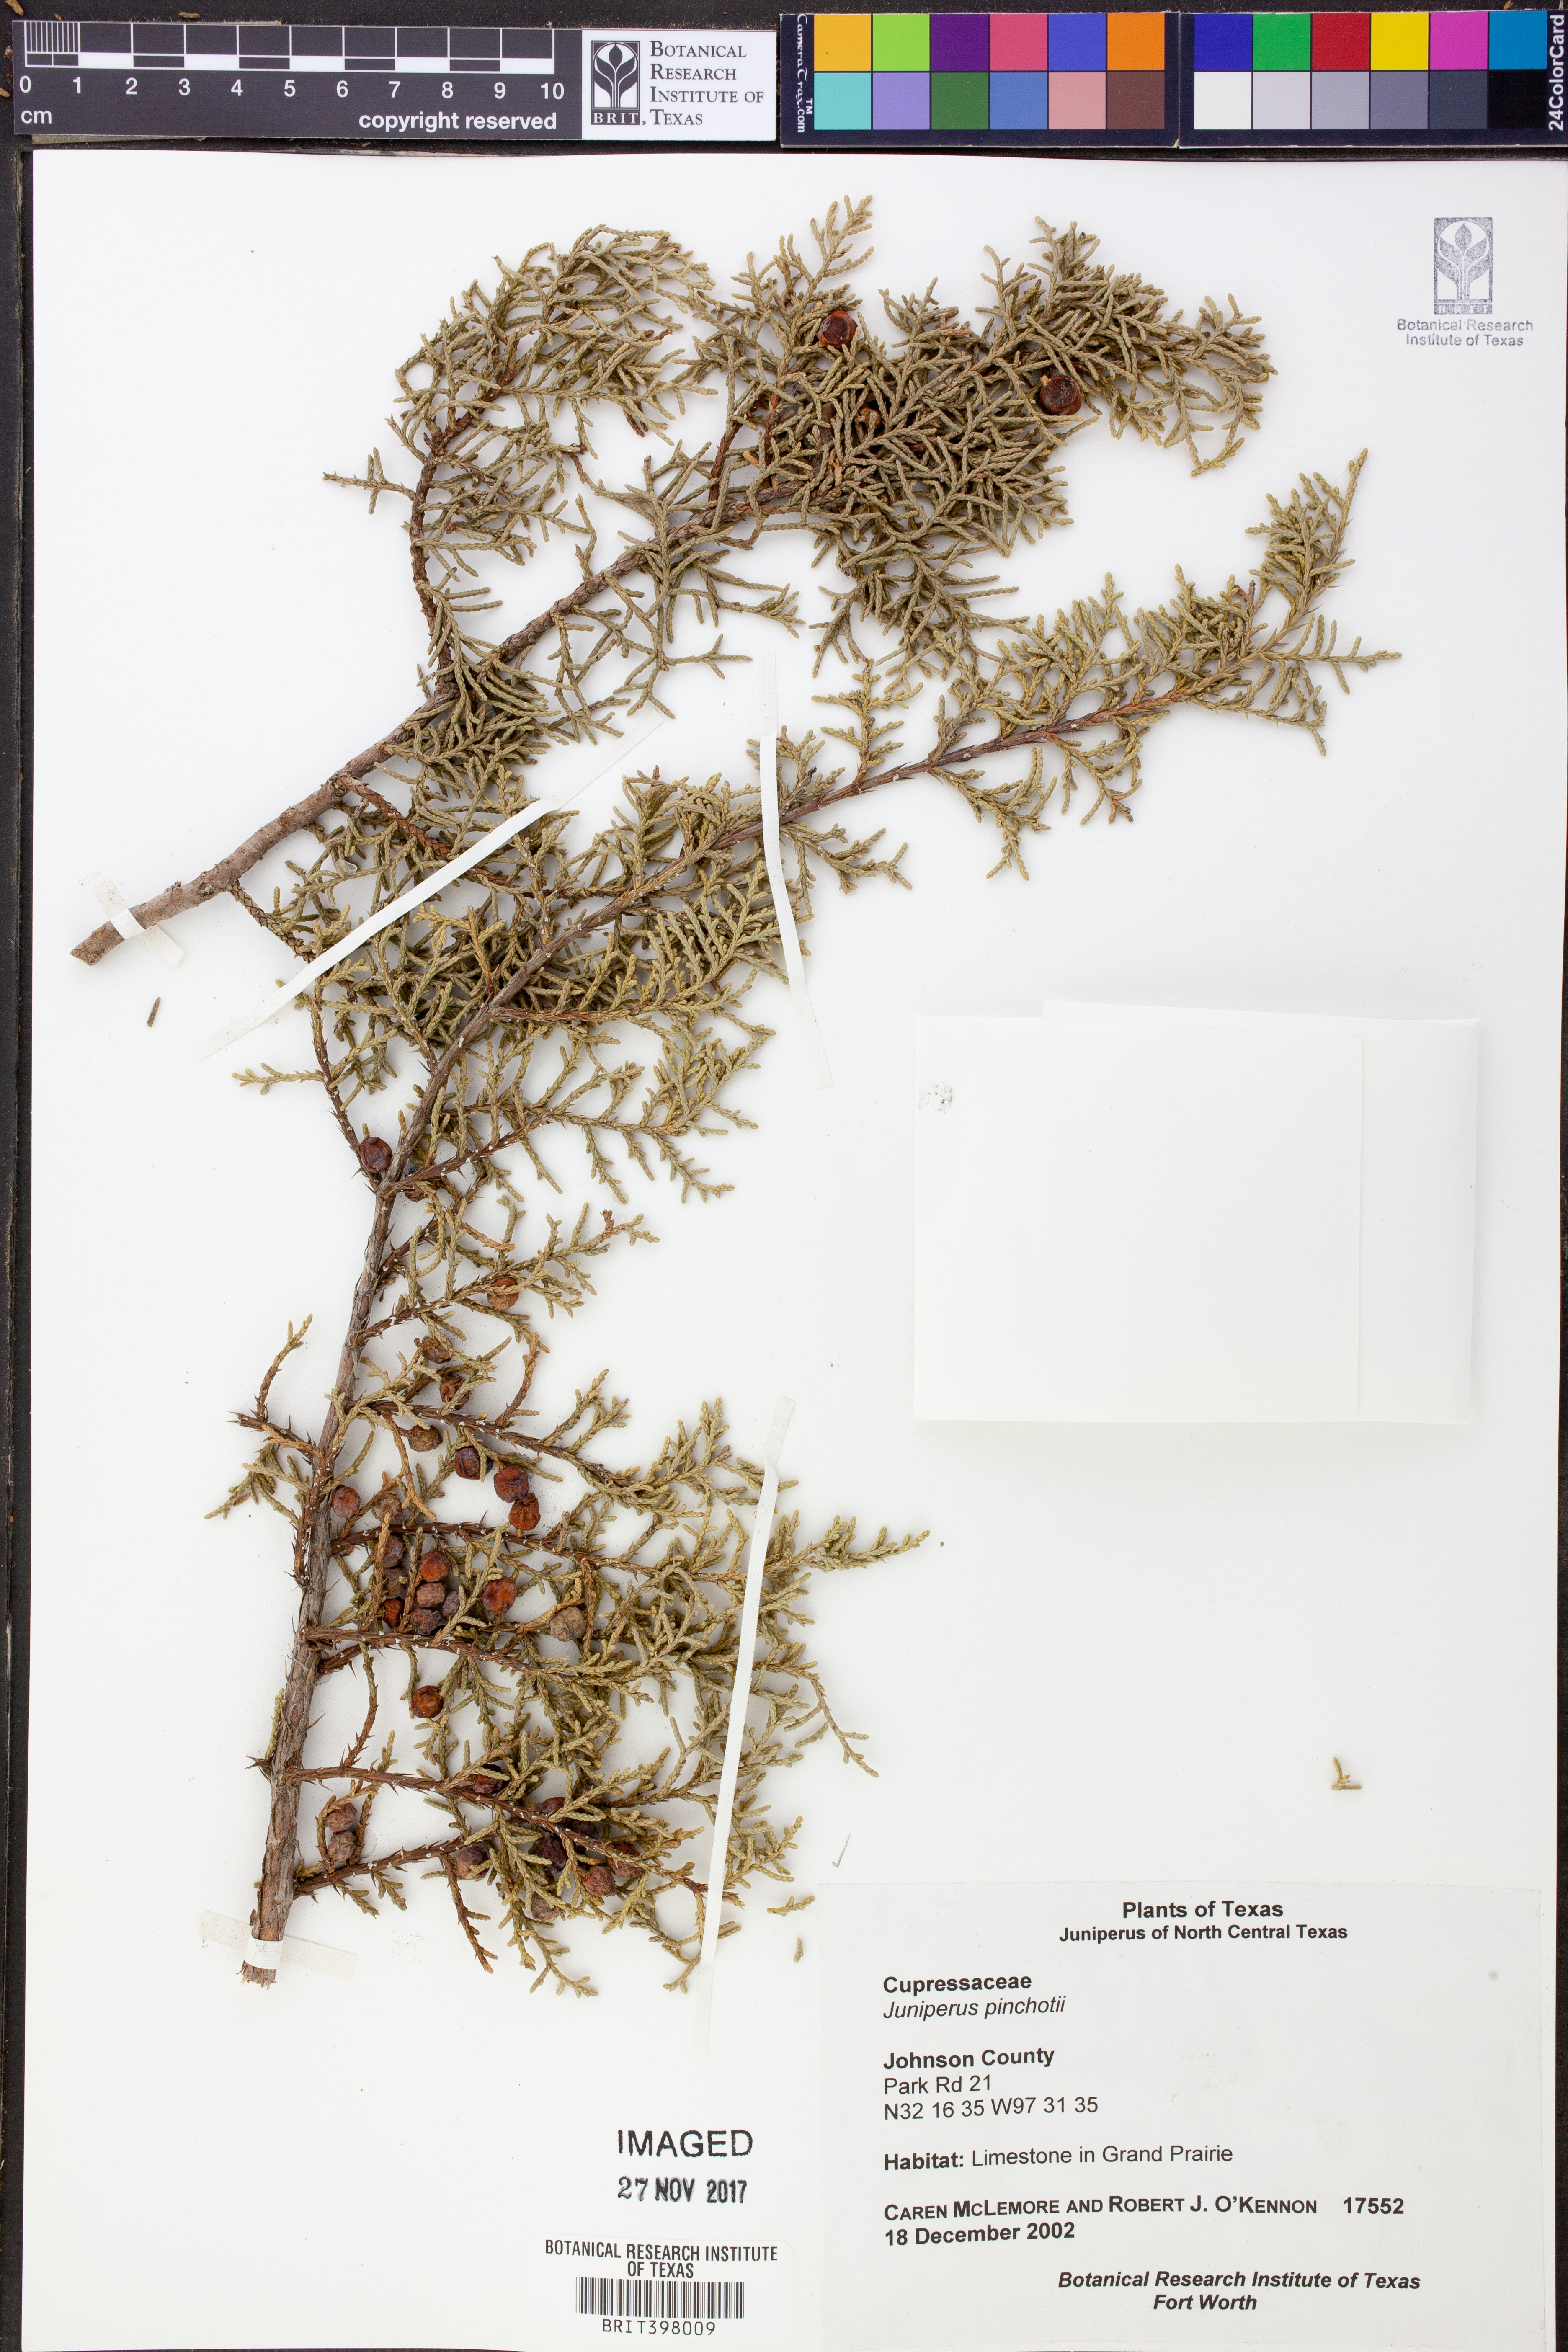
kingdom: Plantae
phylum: Tracheophyta
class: Pinopsida
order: Pinales
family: Cupressaceae
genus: Juniperus
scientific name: Juniperus pinchotii
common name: Pinchot juniper
